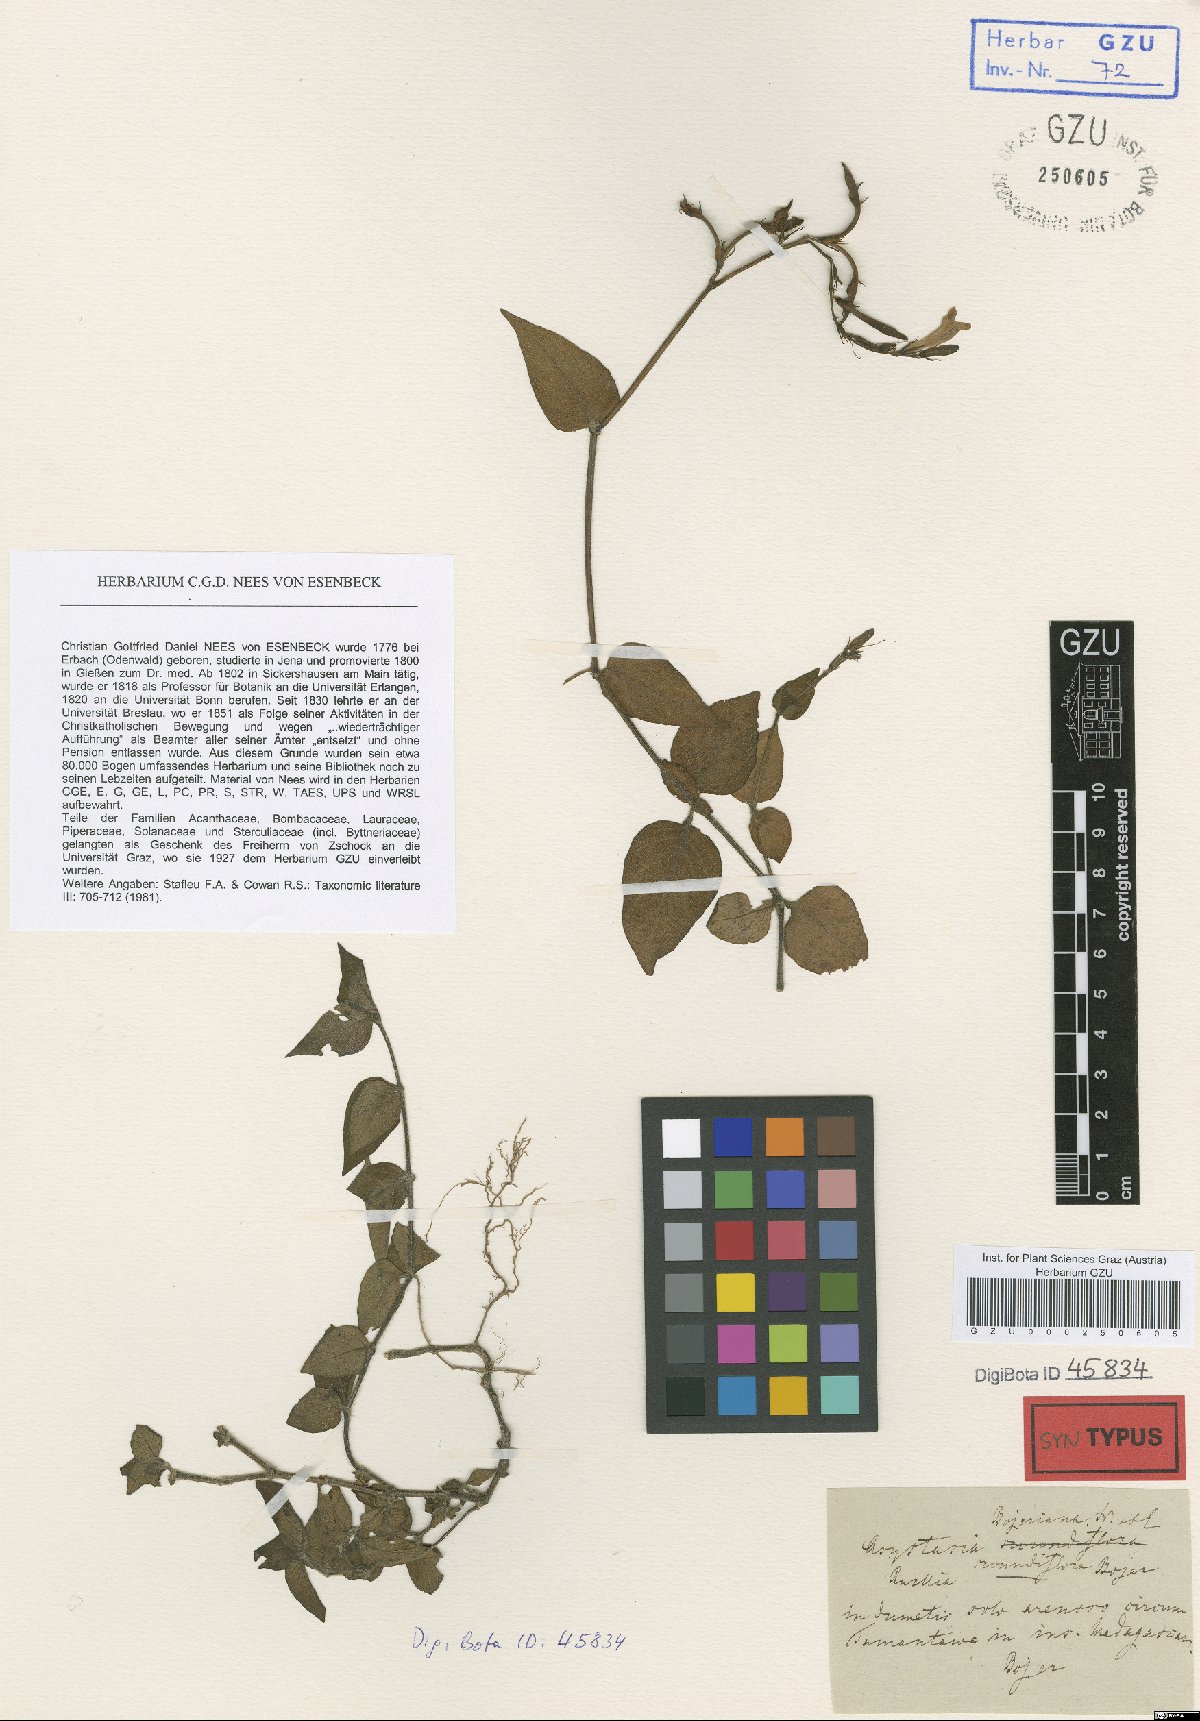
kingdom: Plantae
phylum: Tracheophyta
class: Magnoliopsida
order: Lamiales
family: Acanthaceae
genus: Asystasia
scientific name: Asystasia intrusa
